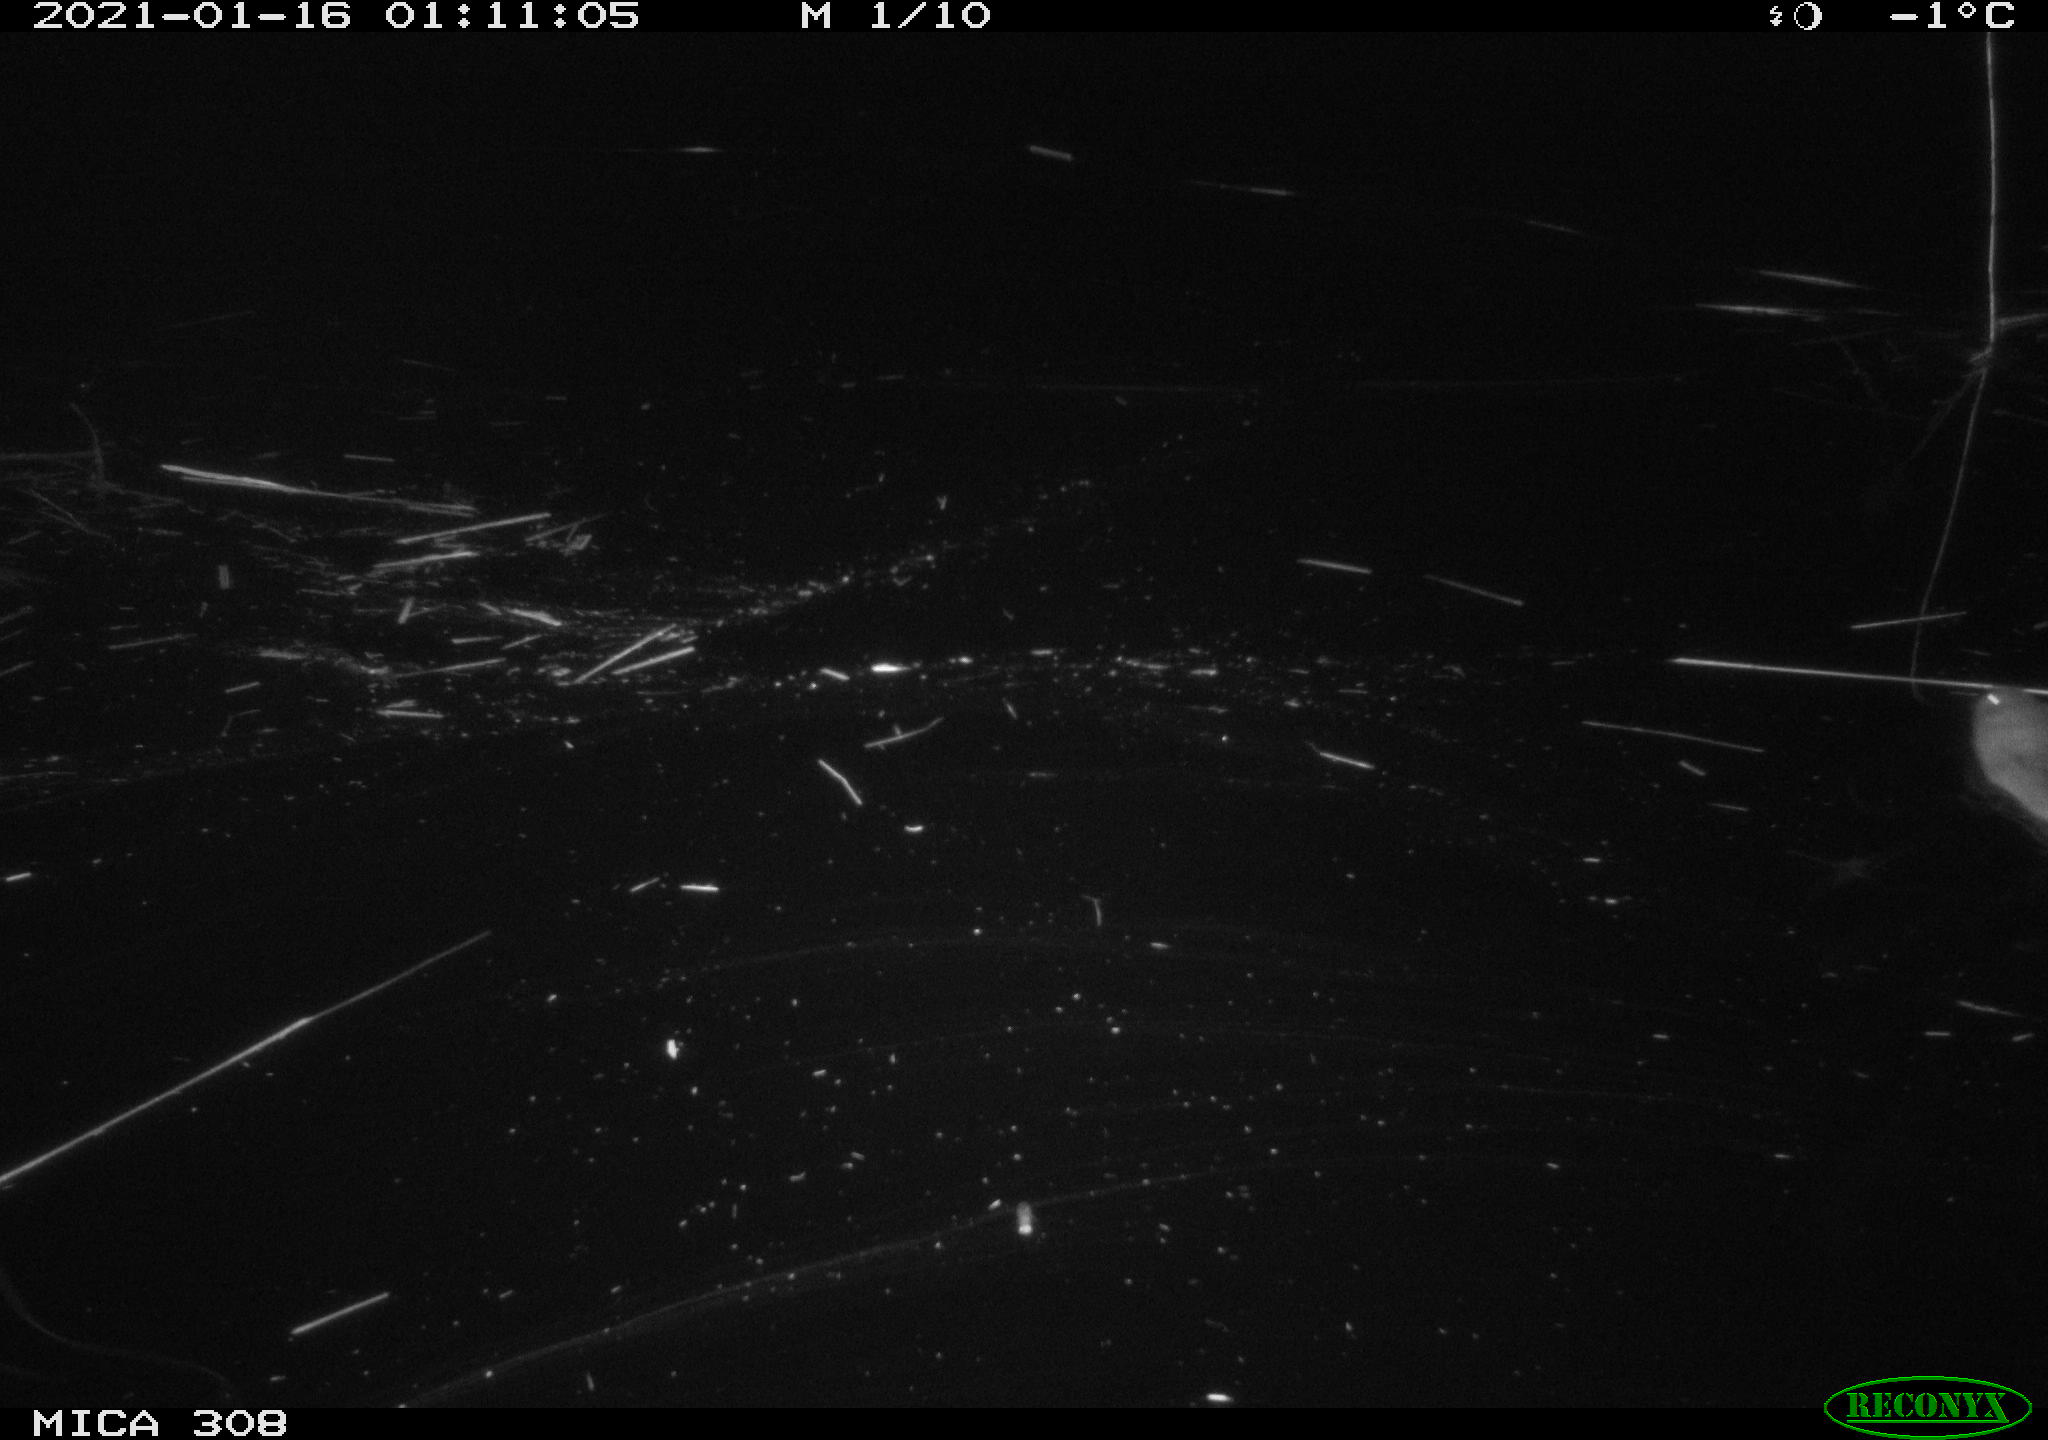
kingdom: Animalia
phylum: Chordata
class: Mammalia
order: Rodentia
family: Cricetidae
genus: Ondatra
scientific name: Ondatra zibethicus
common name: Muskrat
